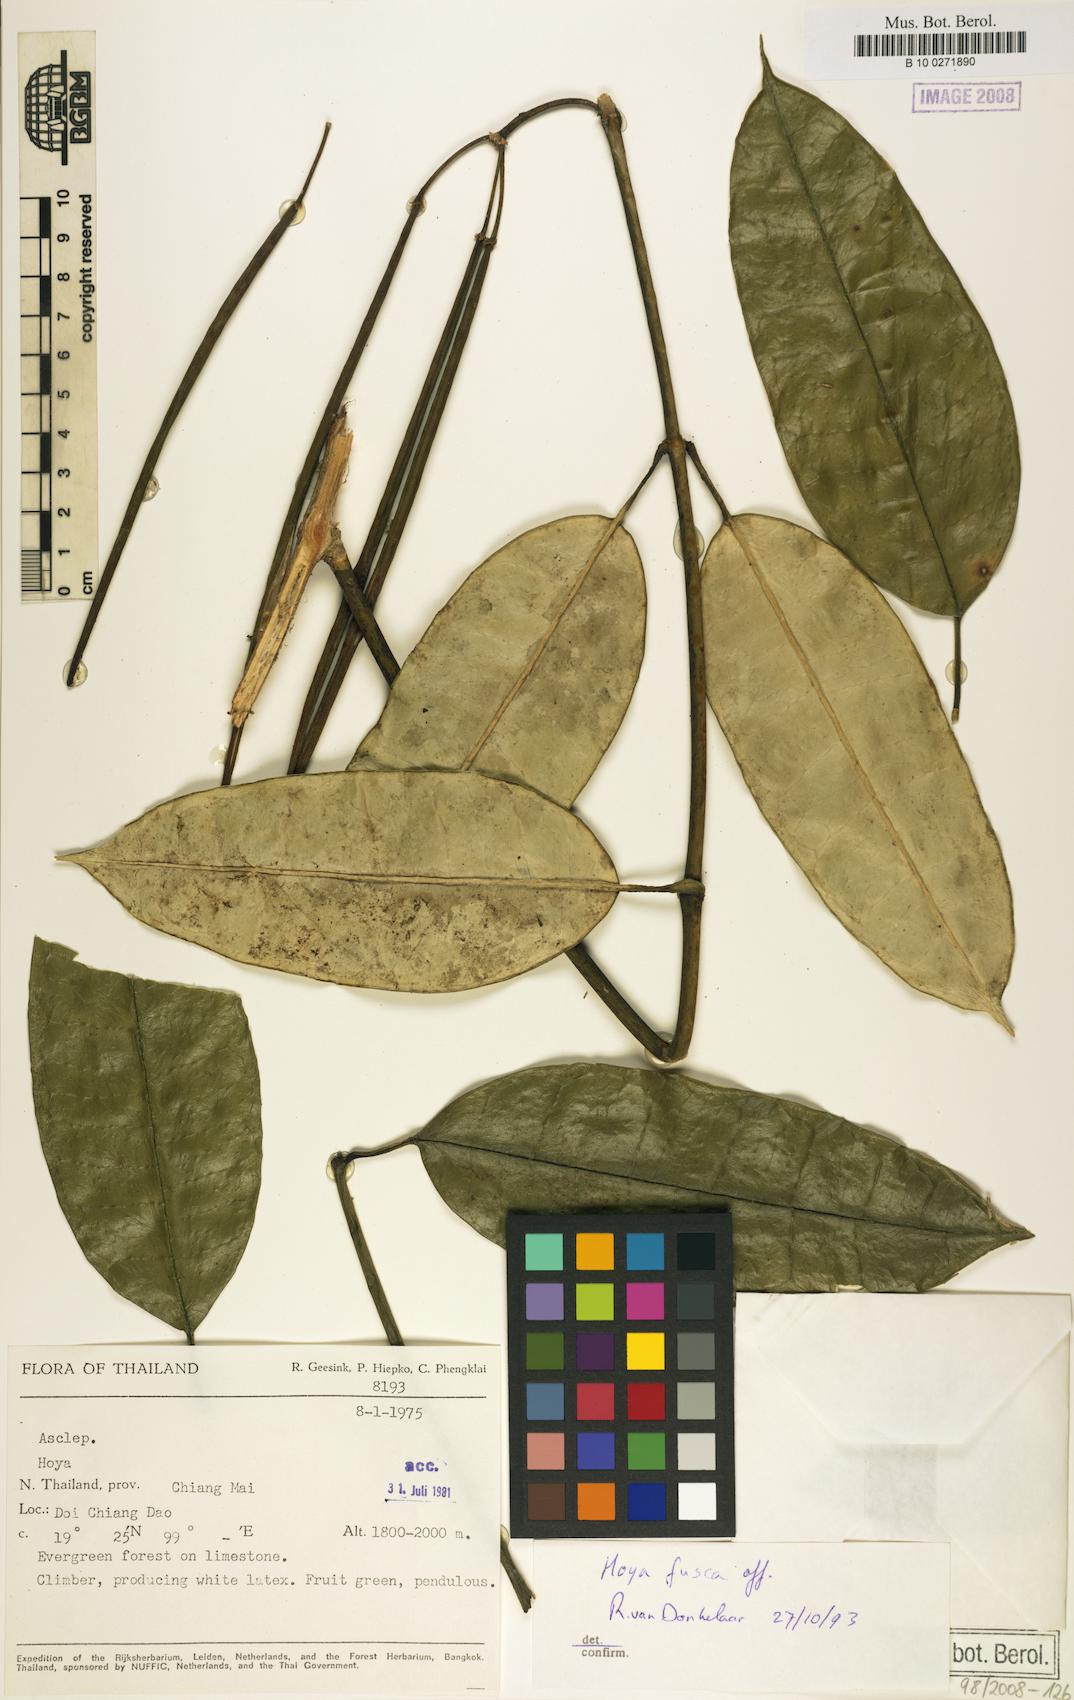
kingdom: Plantae
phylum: Tracheophyta
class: Magnoliopsida
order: Gentianales
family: Apocynaceae
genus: Hoya
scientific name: Hoya fusca
